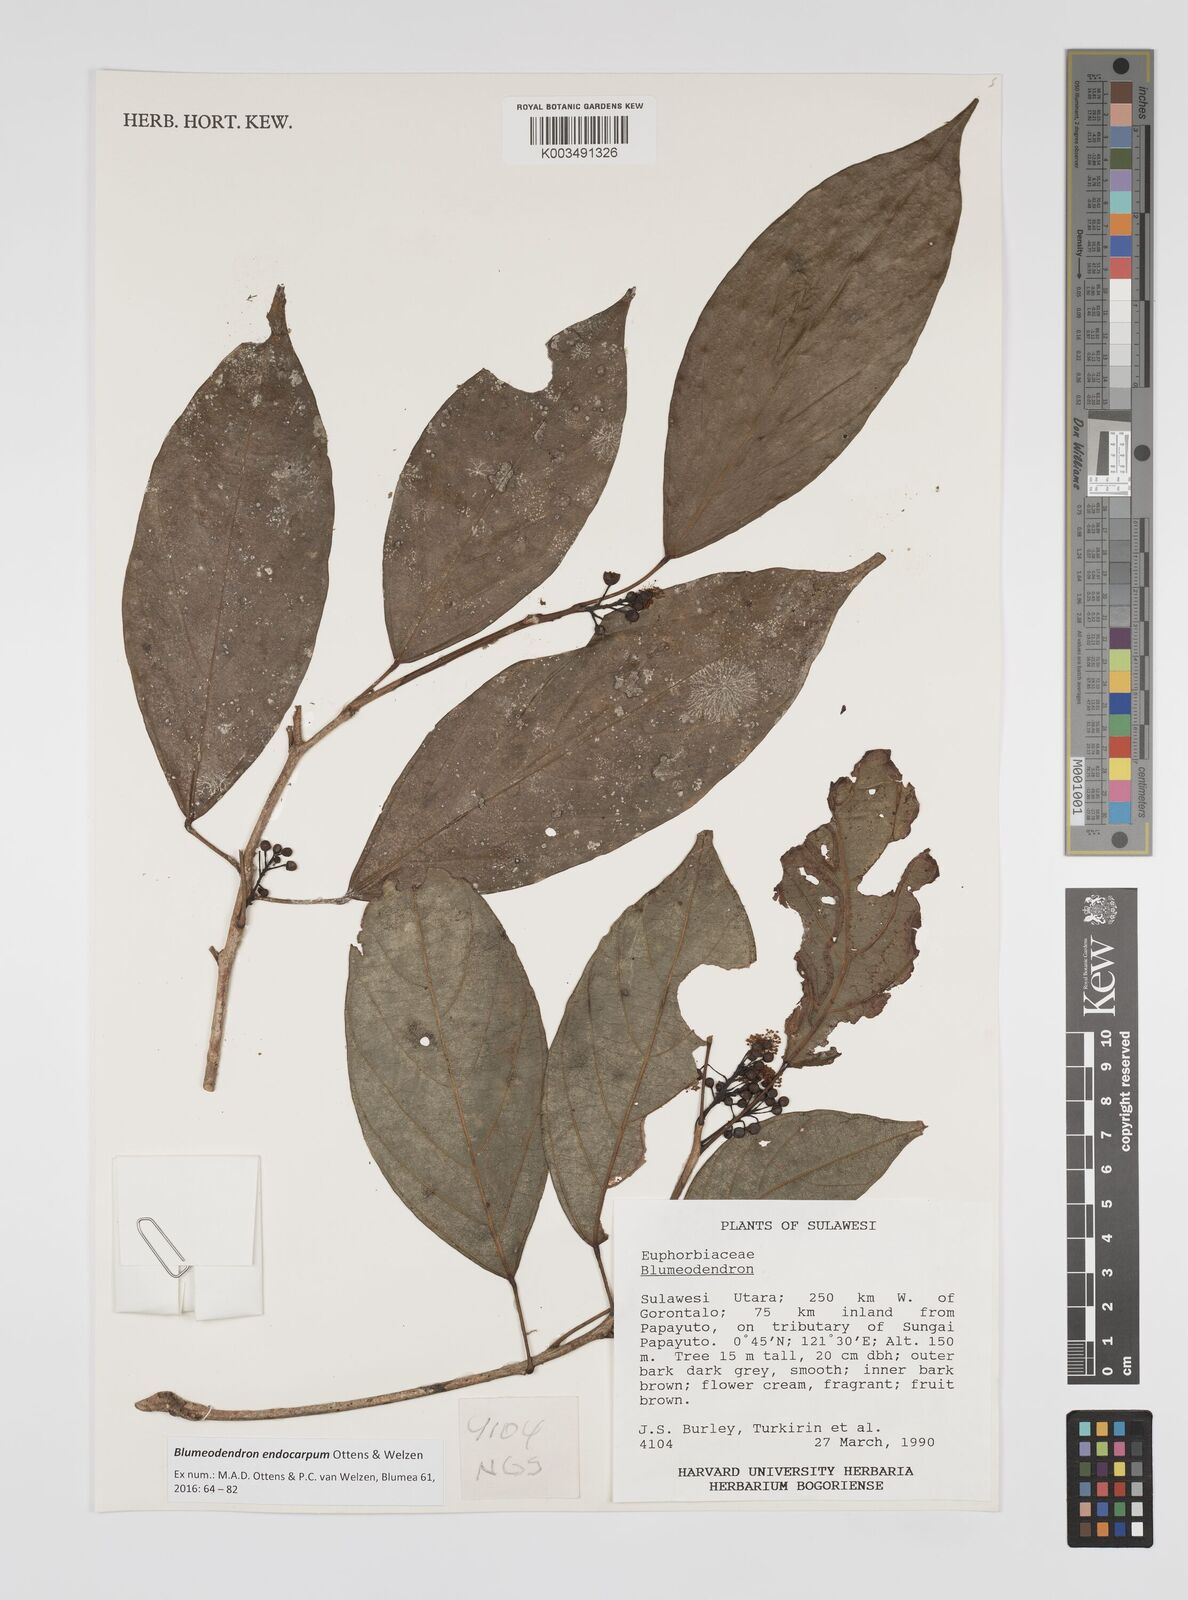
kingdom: Plantae
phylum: Tracheophyta
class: Magnoliopsida
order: Malpighiales
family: Euphorbiaceae
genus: Blumeodendron
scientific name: Blumeodendron endocarpum
